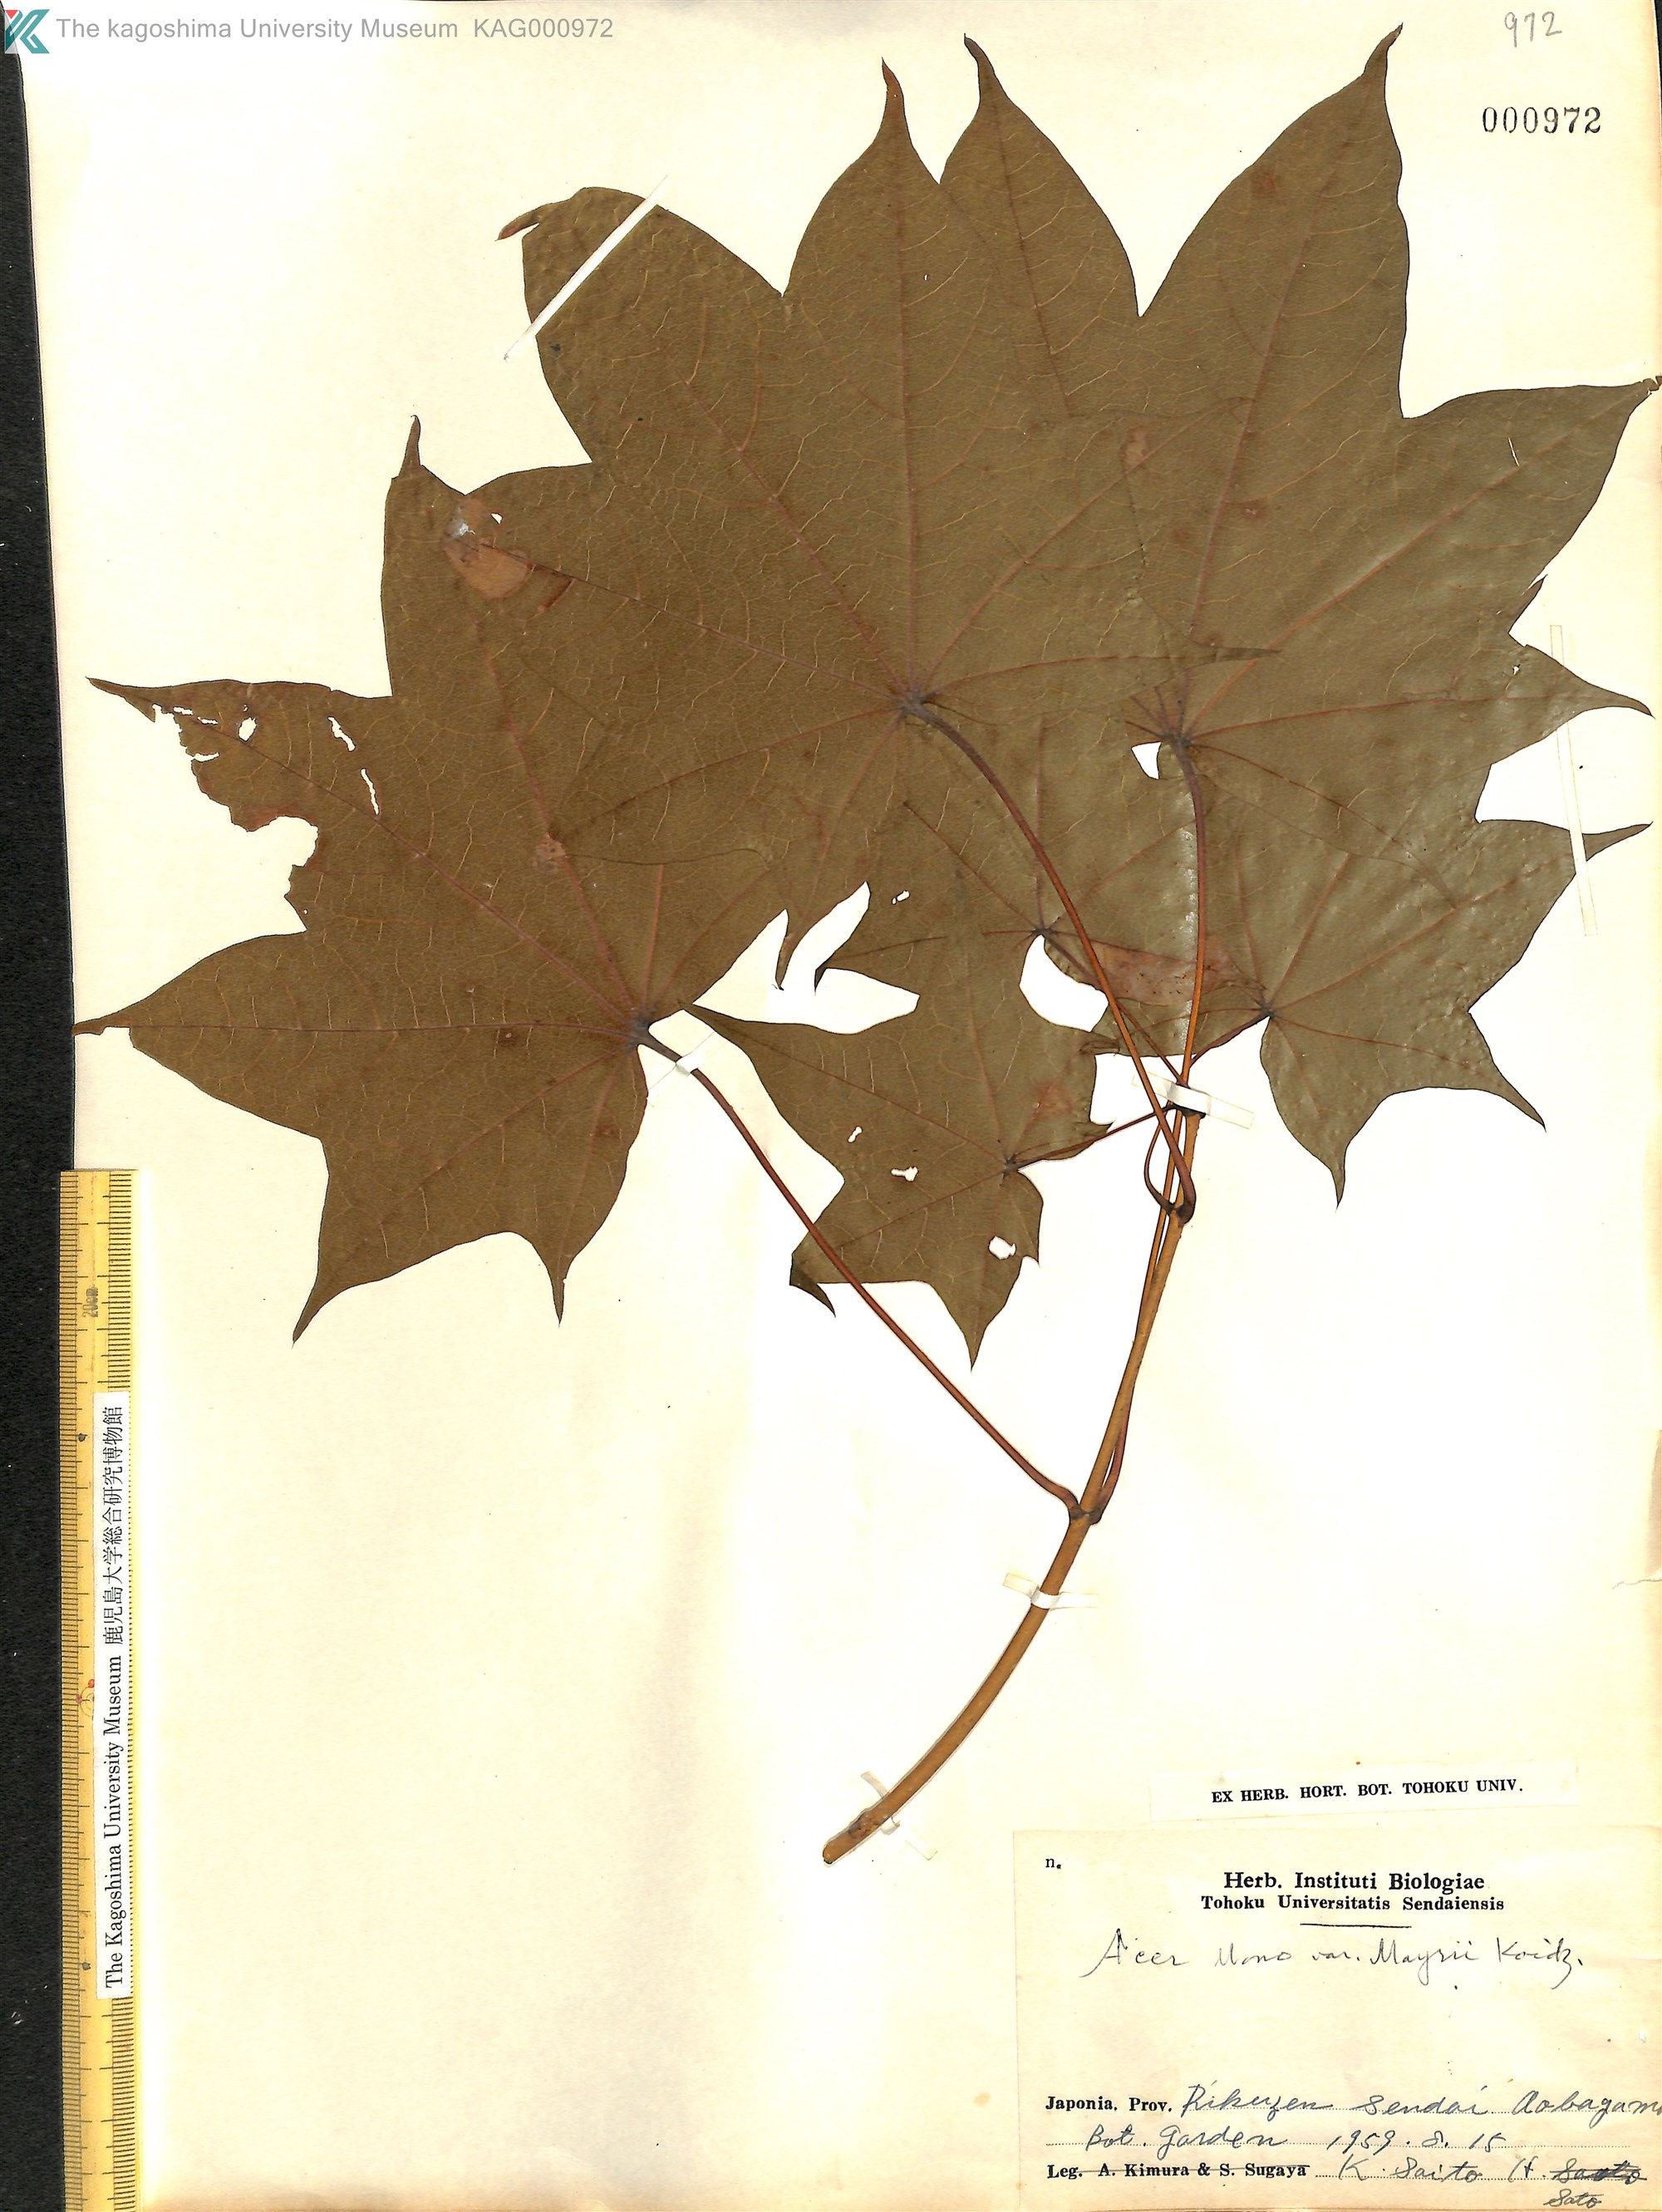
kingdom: Plantae
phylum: Tracheophyta
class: Magnoliopsida
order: Sapindales
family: Sapindaceae
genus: Acer
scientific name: Acer pictum
